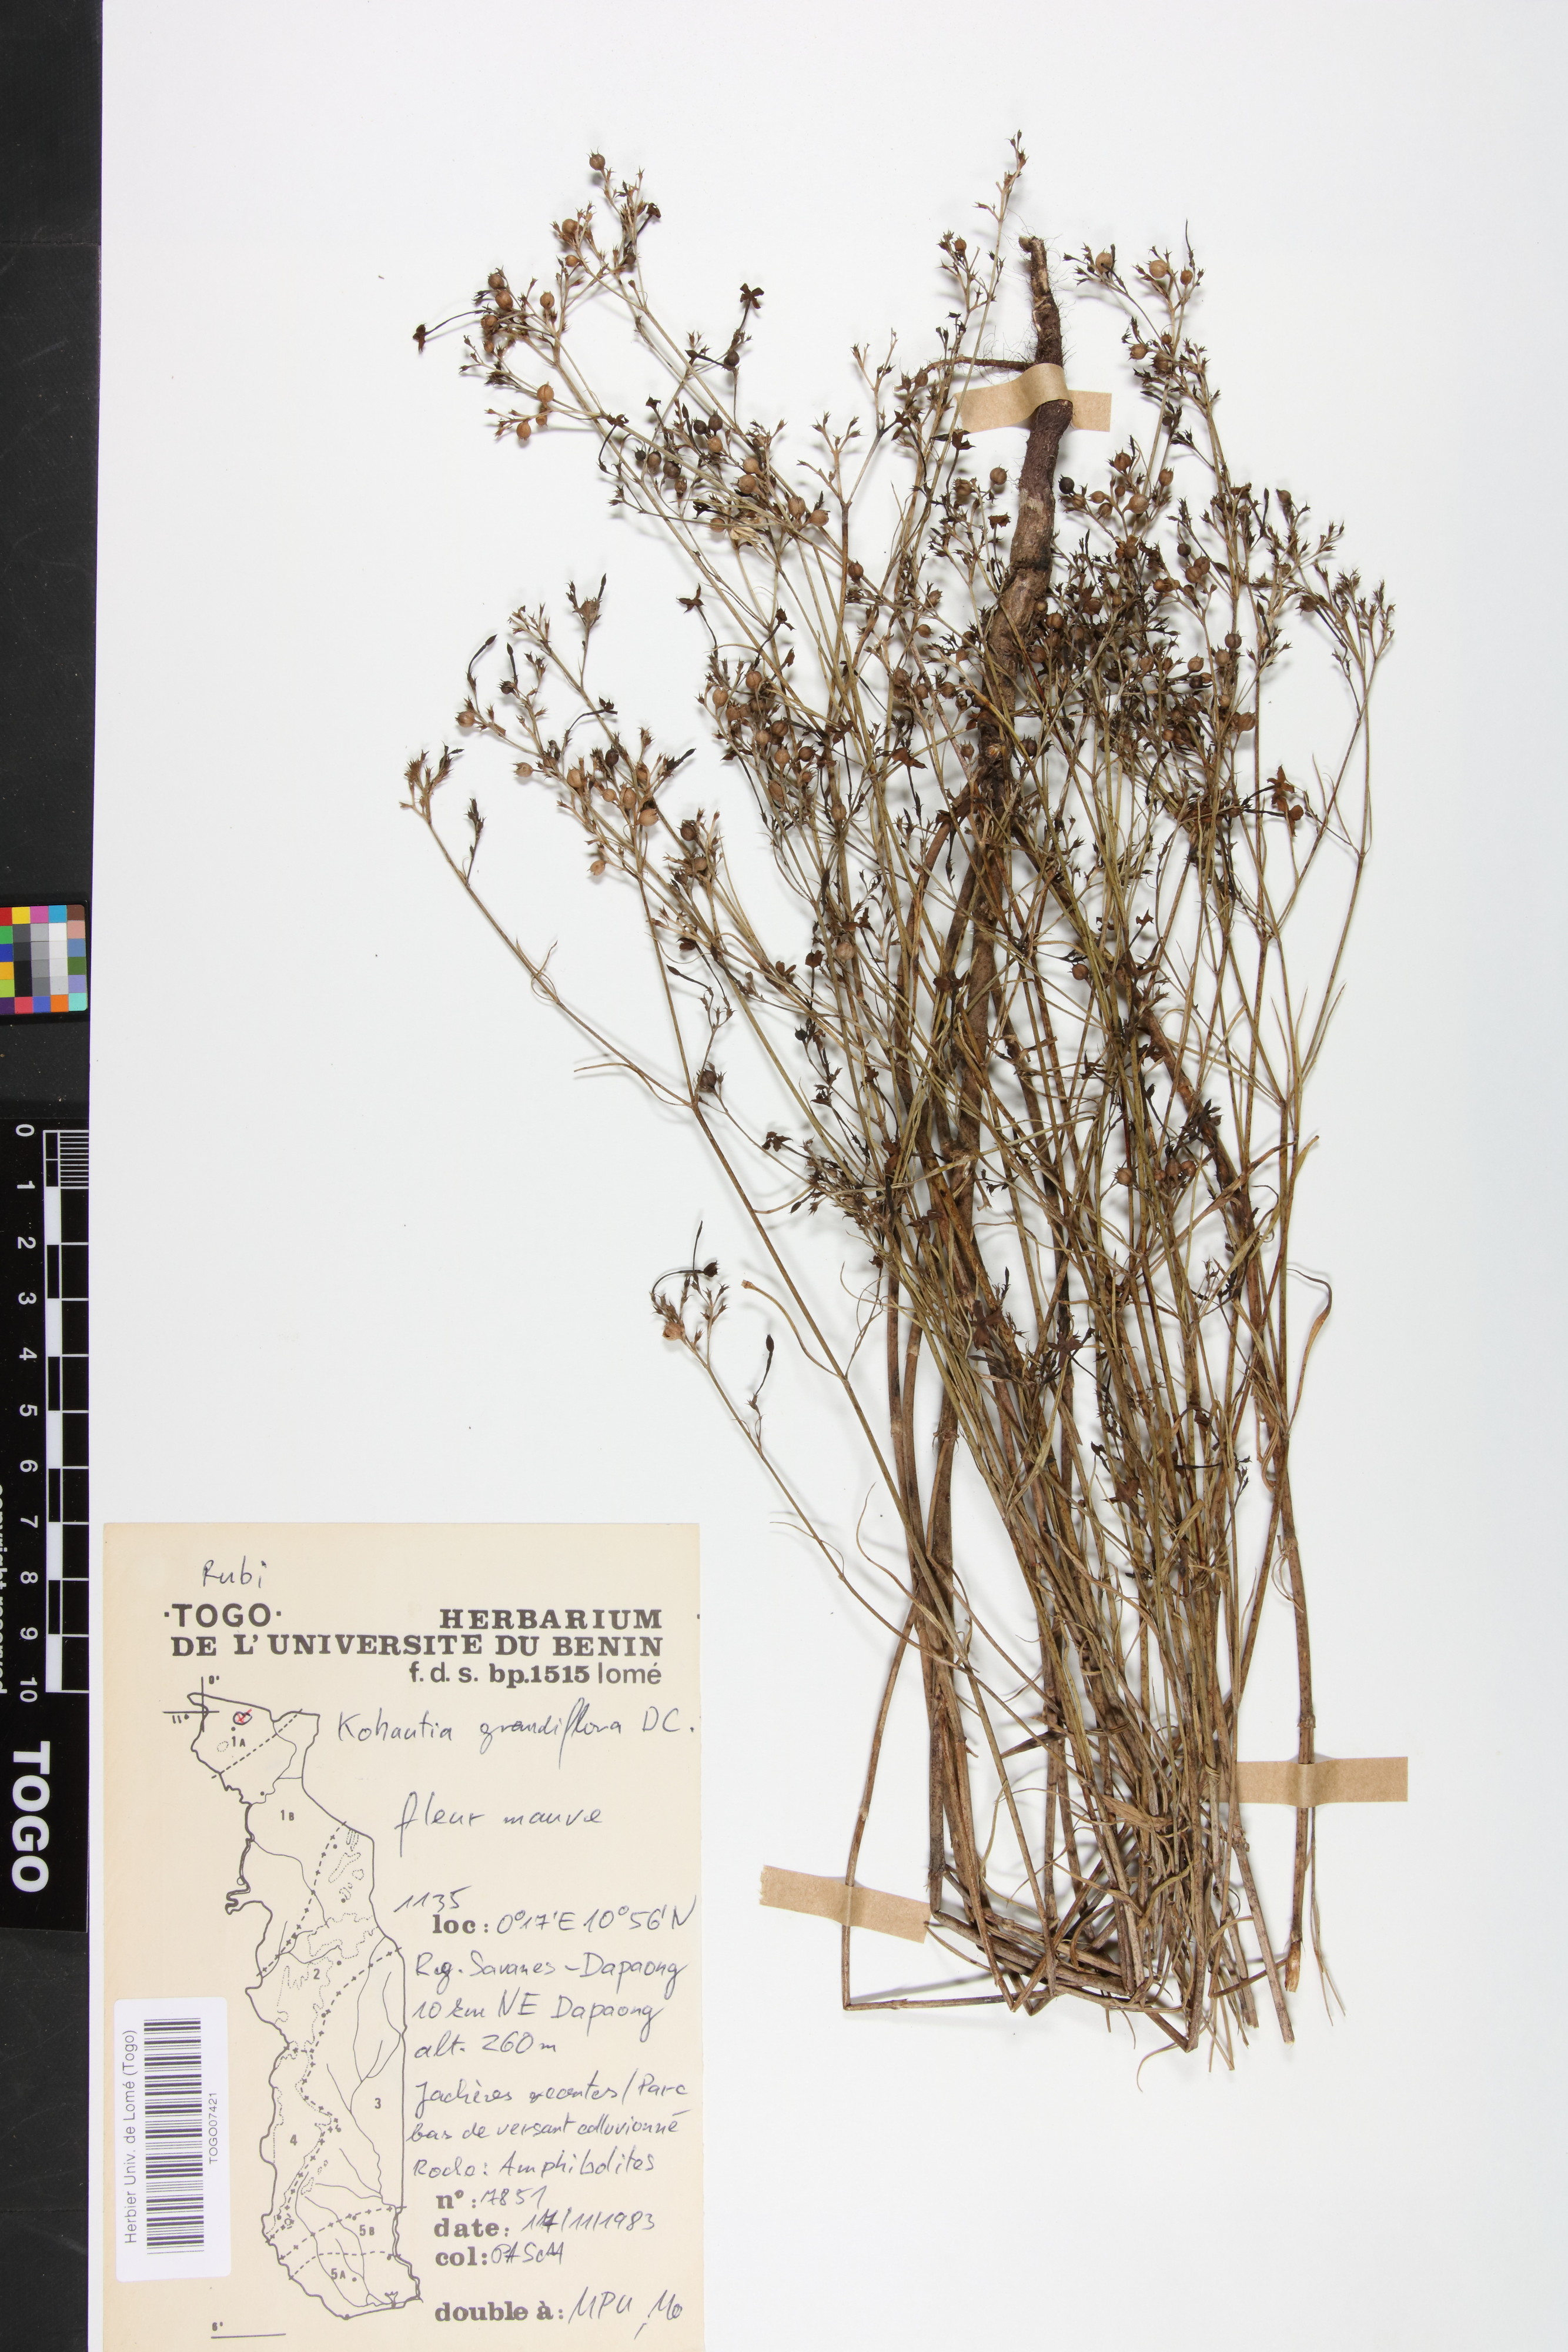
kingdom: Plantae
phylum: Tracheophyta
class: Magnoliopsida
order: Gentianales
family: Rubiaceae
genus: Kohautia
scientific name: Kohautia grandiflora
